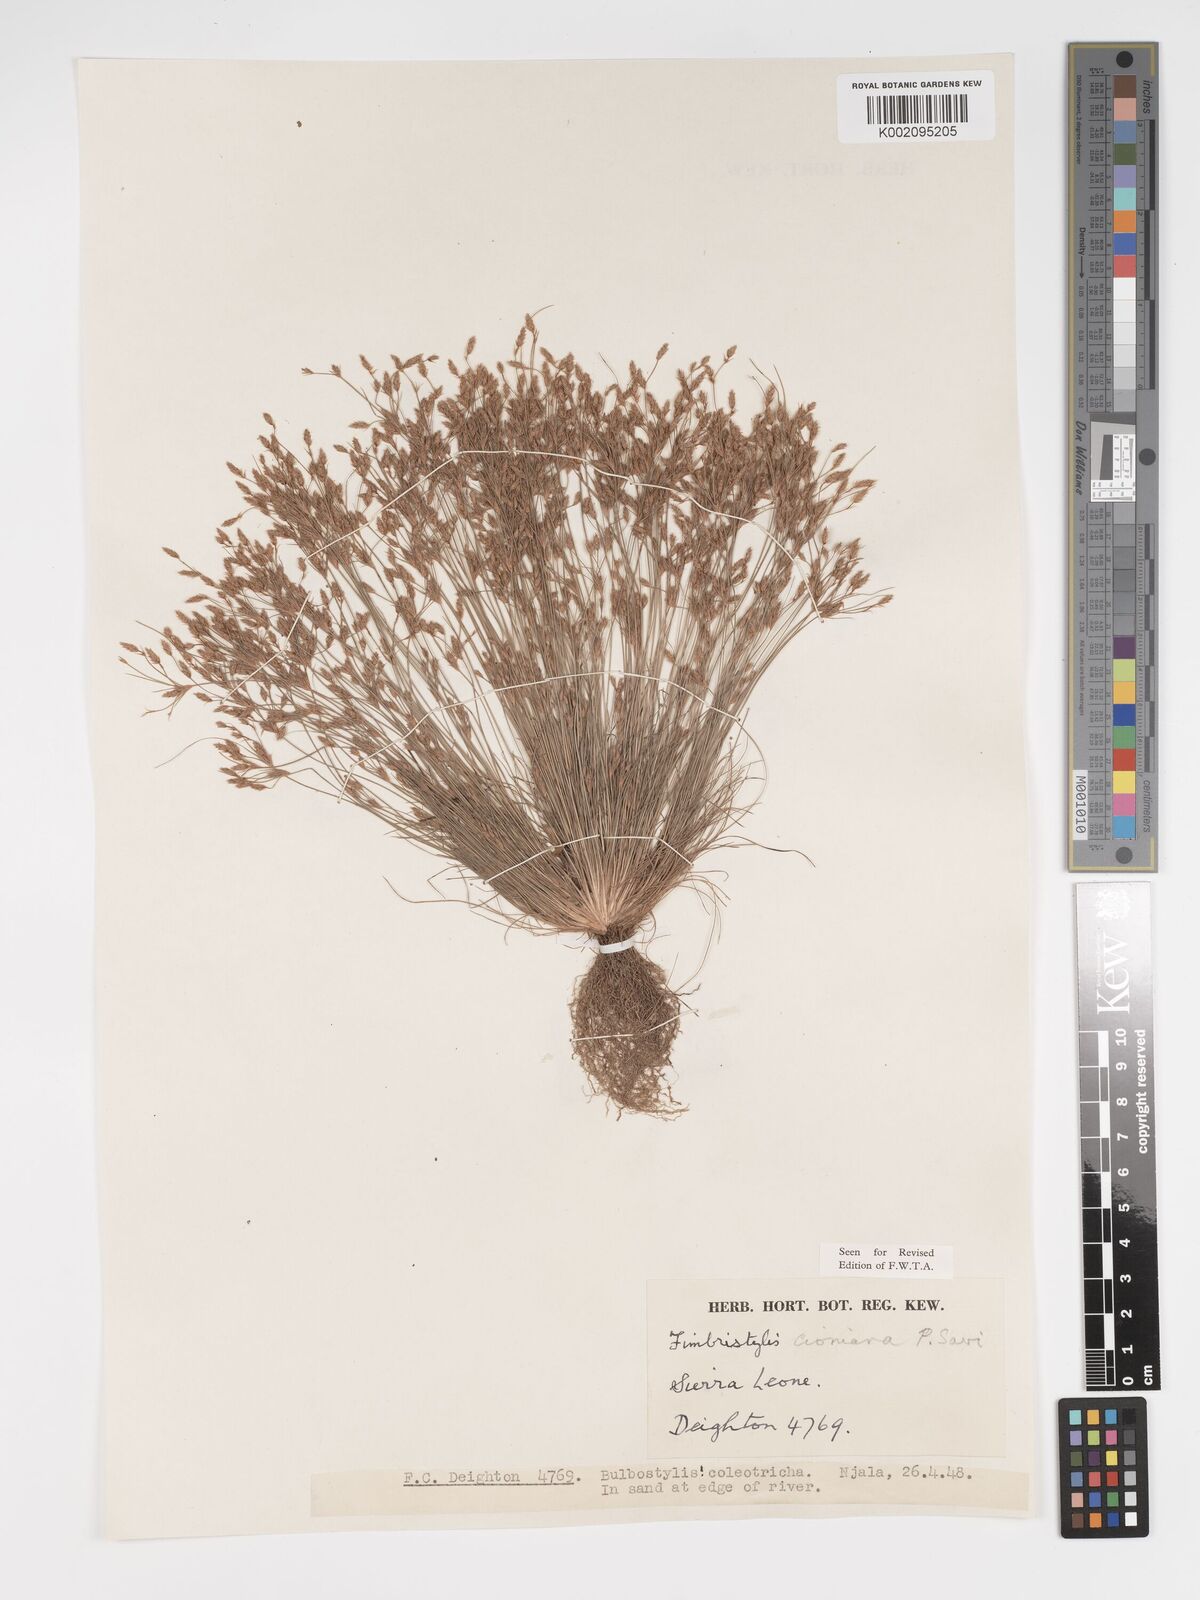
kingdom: Plantae
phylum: Tracheophyta
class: Liliopsida
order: Poales
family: Cyperaceae
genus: Bulbostylis
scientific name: Bulbostylis cioniana
